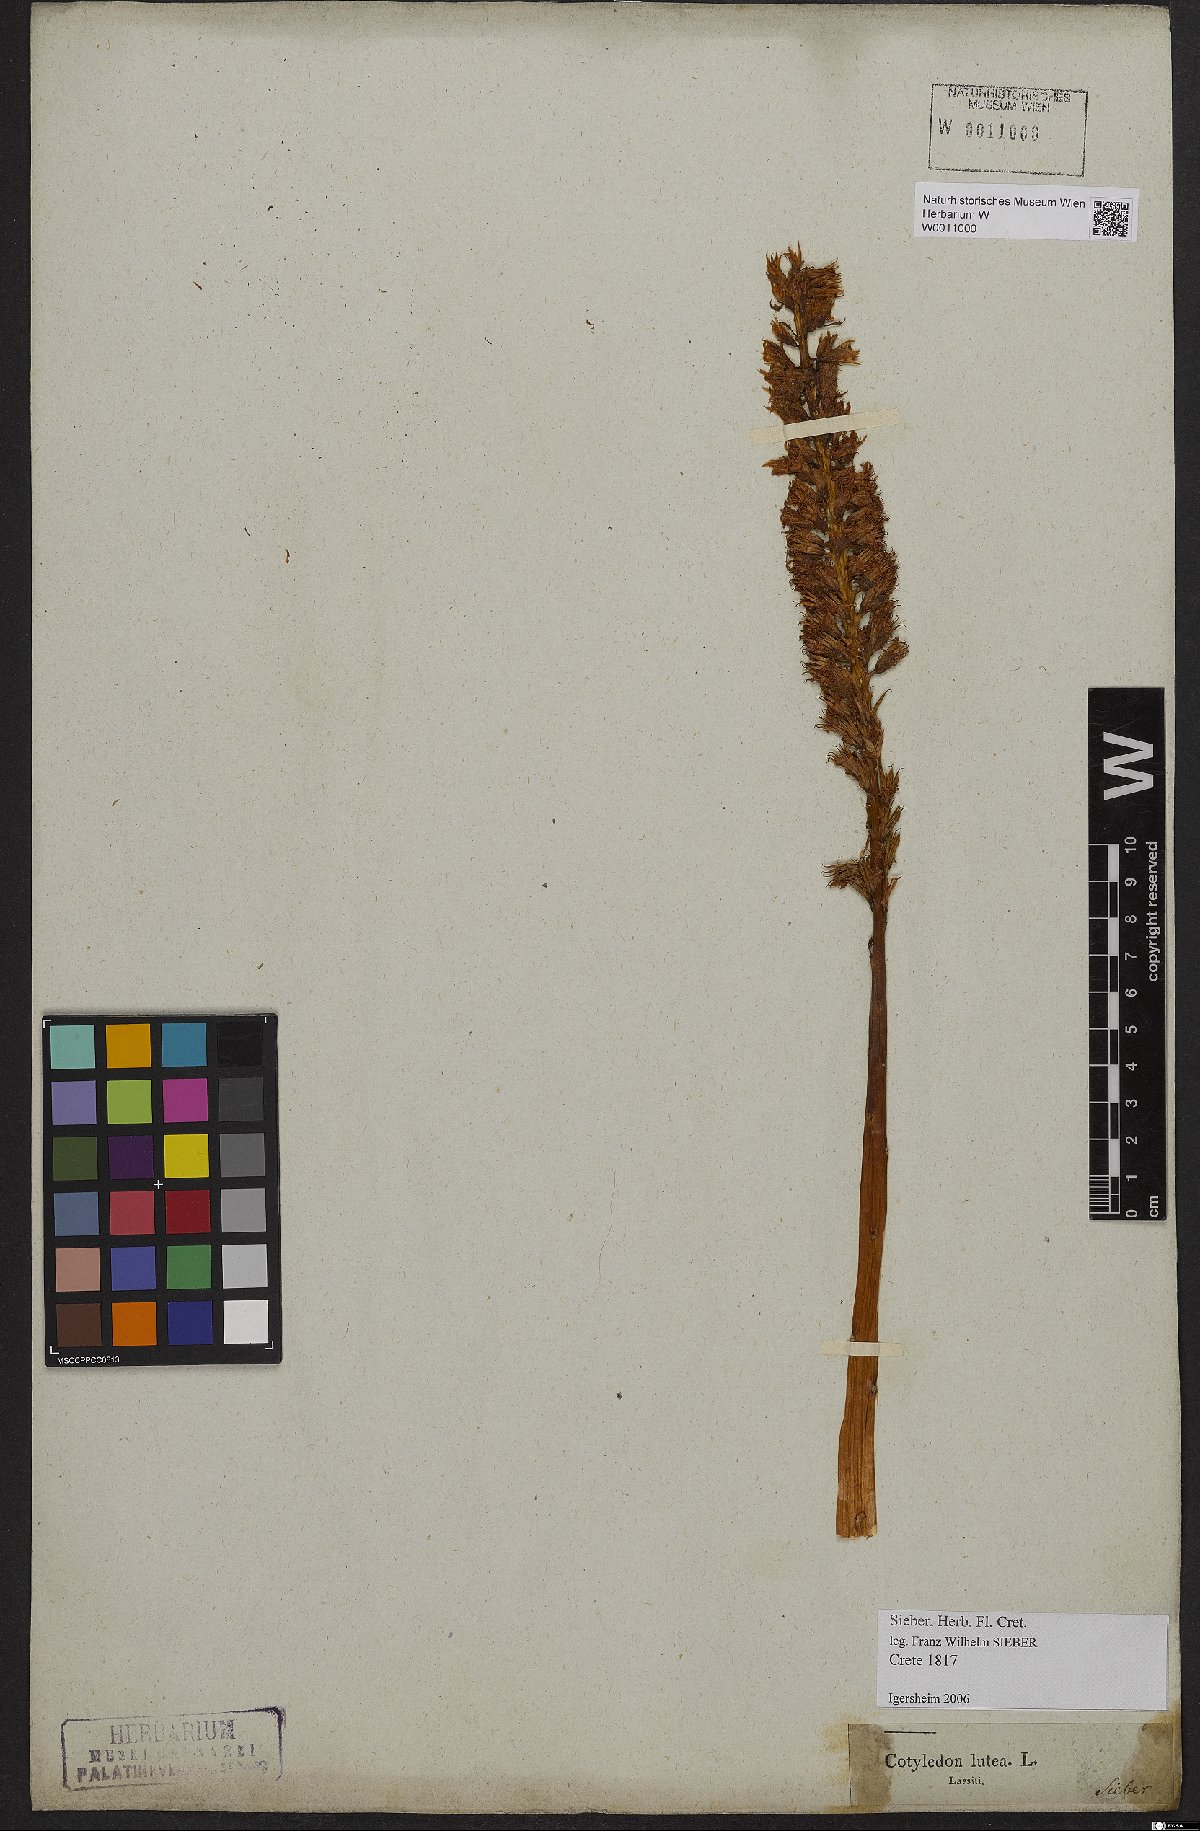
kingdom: Plantae
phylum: Tracheophyta
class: Magnoliopsida
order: Saxifragales
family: Crassulaceae
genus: Umbilicus
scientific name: Umbilicus luteus
